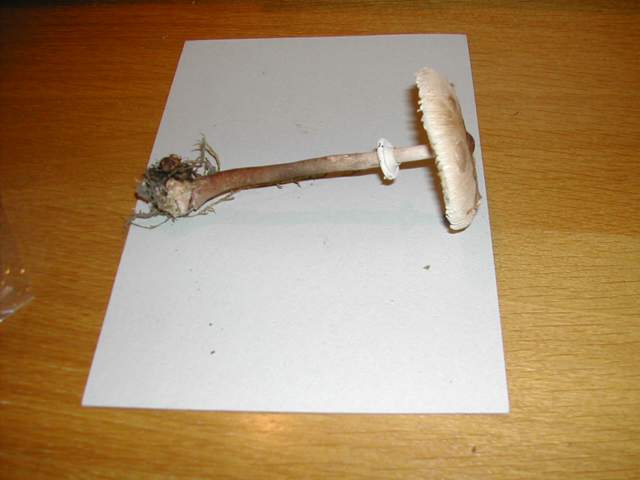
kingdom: Fungi
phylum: Basidiomycota
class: Agaricomycetes
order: Agaricales
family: Agaricaceae
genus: Macrolepiota
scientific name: Macrolepiota mastoidea
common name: puklet kæmpeparasolhat
